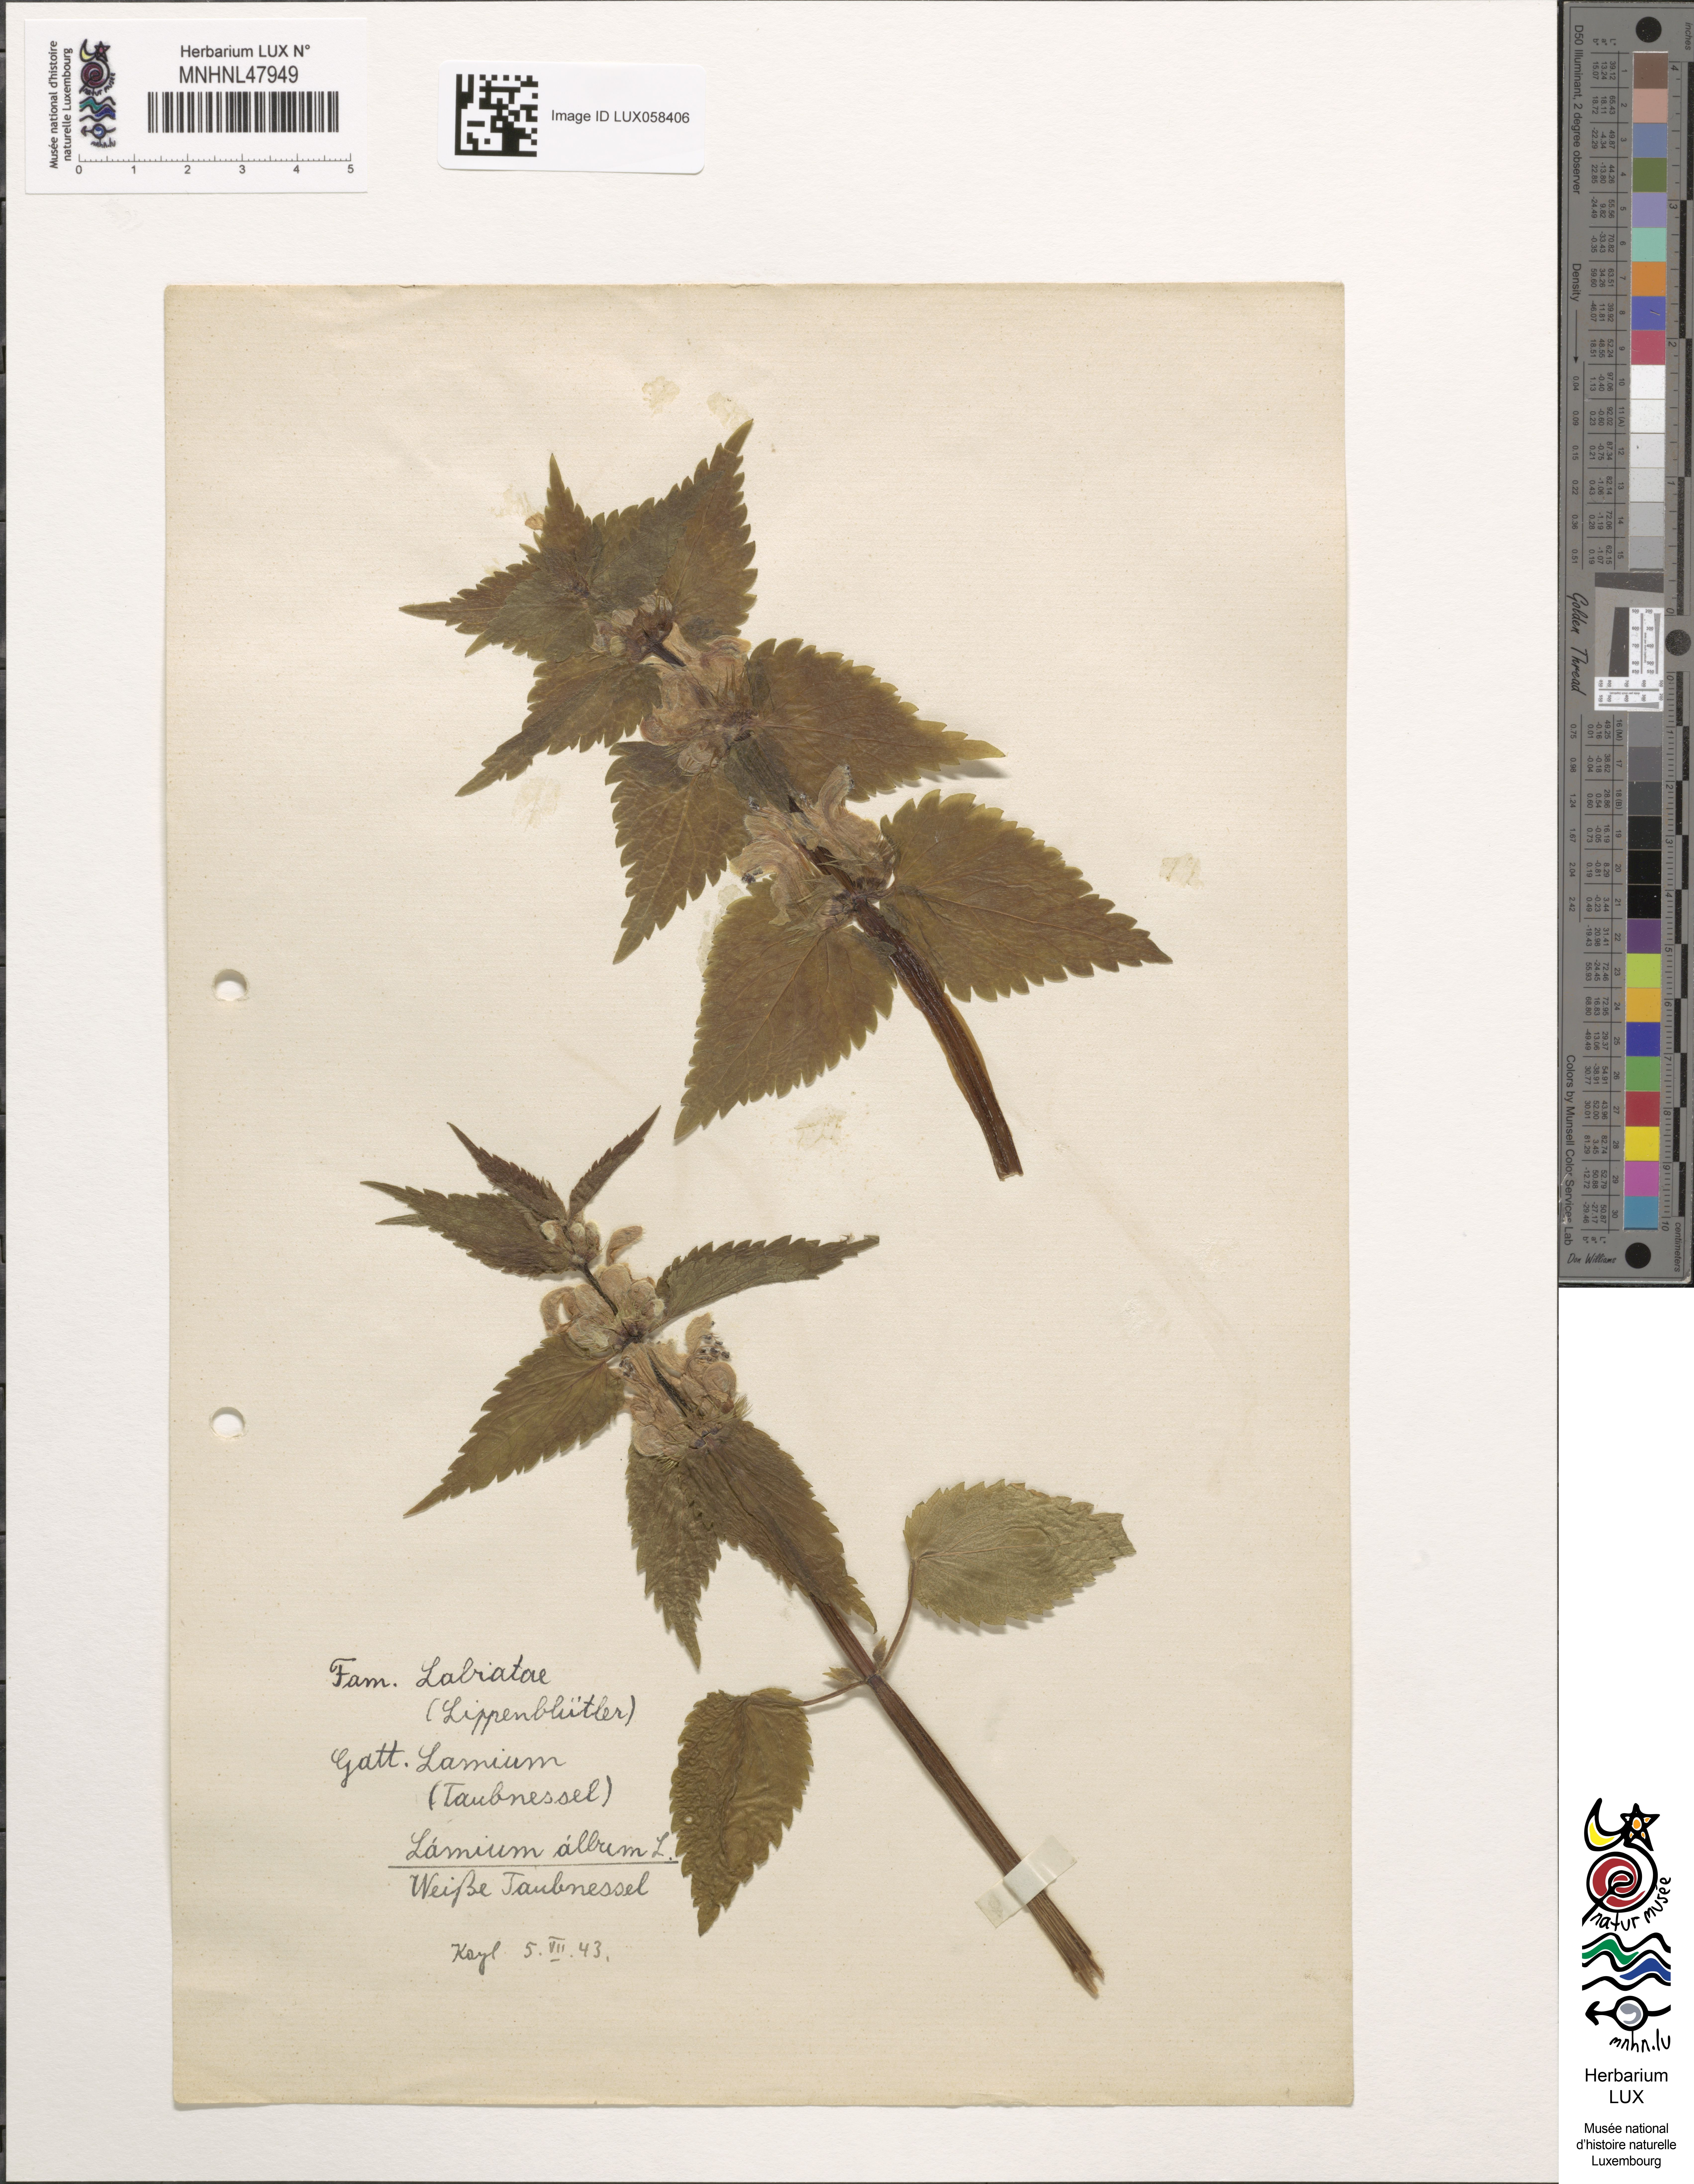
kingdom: Plantae
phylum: Tracheophyta
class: Magnoliopsida
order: Lamiales
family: Lamiaceae
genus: Lamium
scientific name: Lamium album
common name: White dead-nettle
